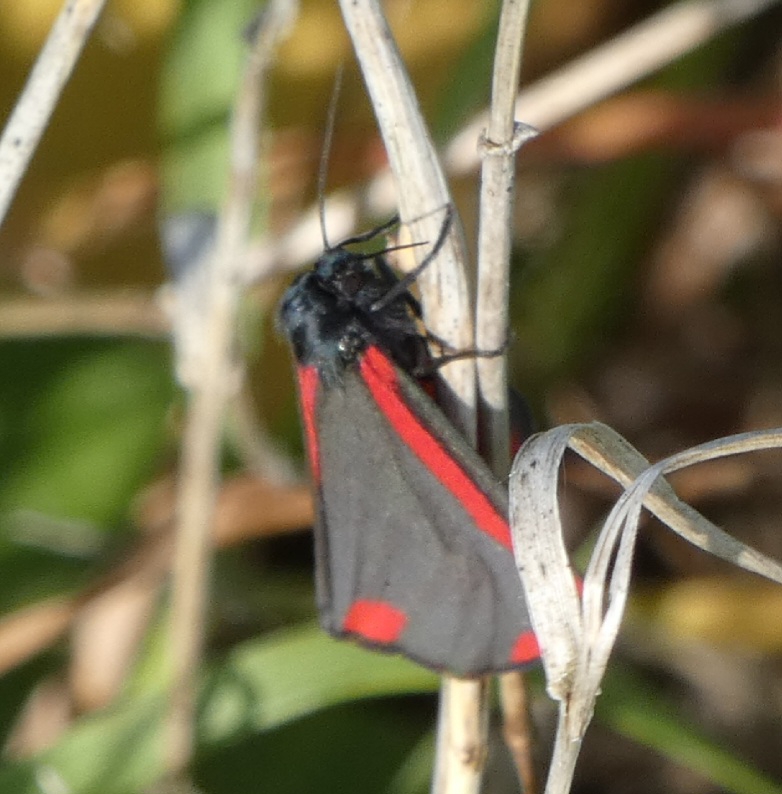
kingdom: Animalia
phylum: Arthropoda
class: Insecta
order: Lepidoptera
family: Erebidae
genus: Tyria
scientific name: Tyria jacobaeae
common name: Blodplet
